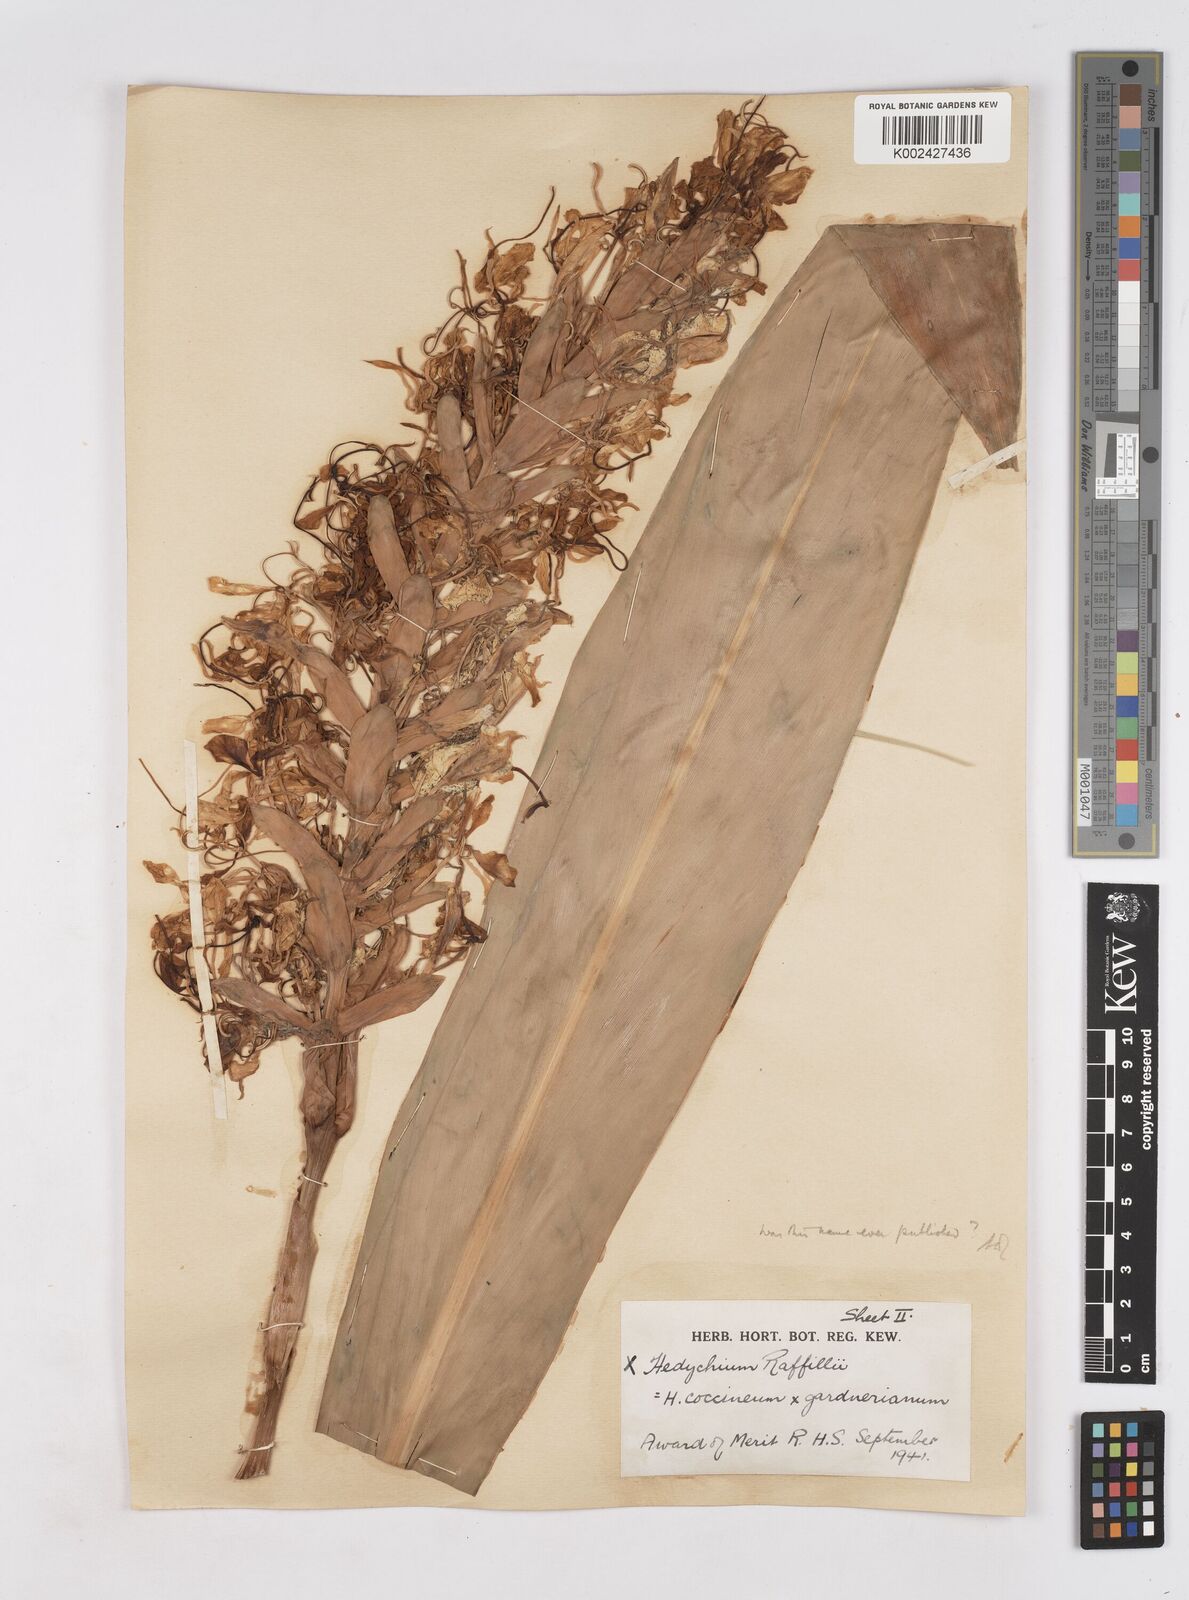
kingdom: Plantae
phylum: Tracheophyta
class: Liliopsida
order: Zingiberales
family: Zingiberaceae
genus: Hedychium
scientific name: Hedychium
